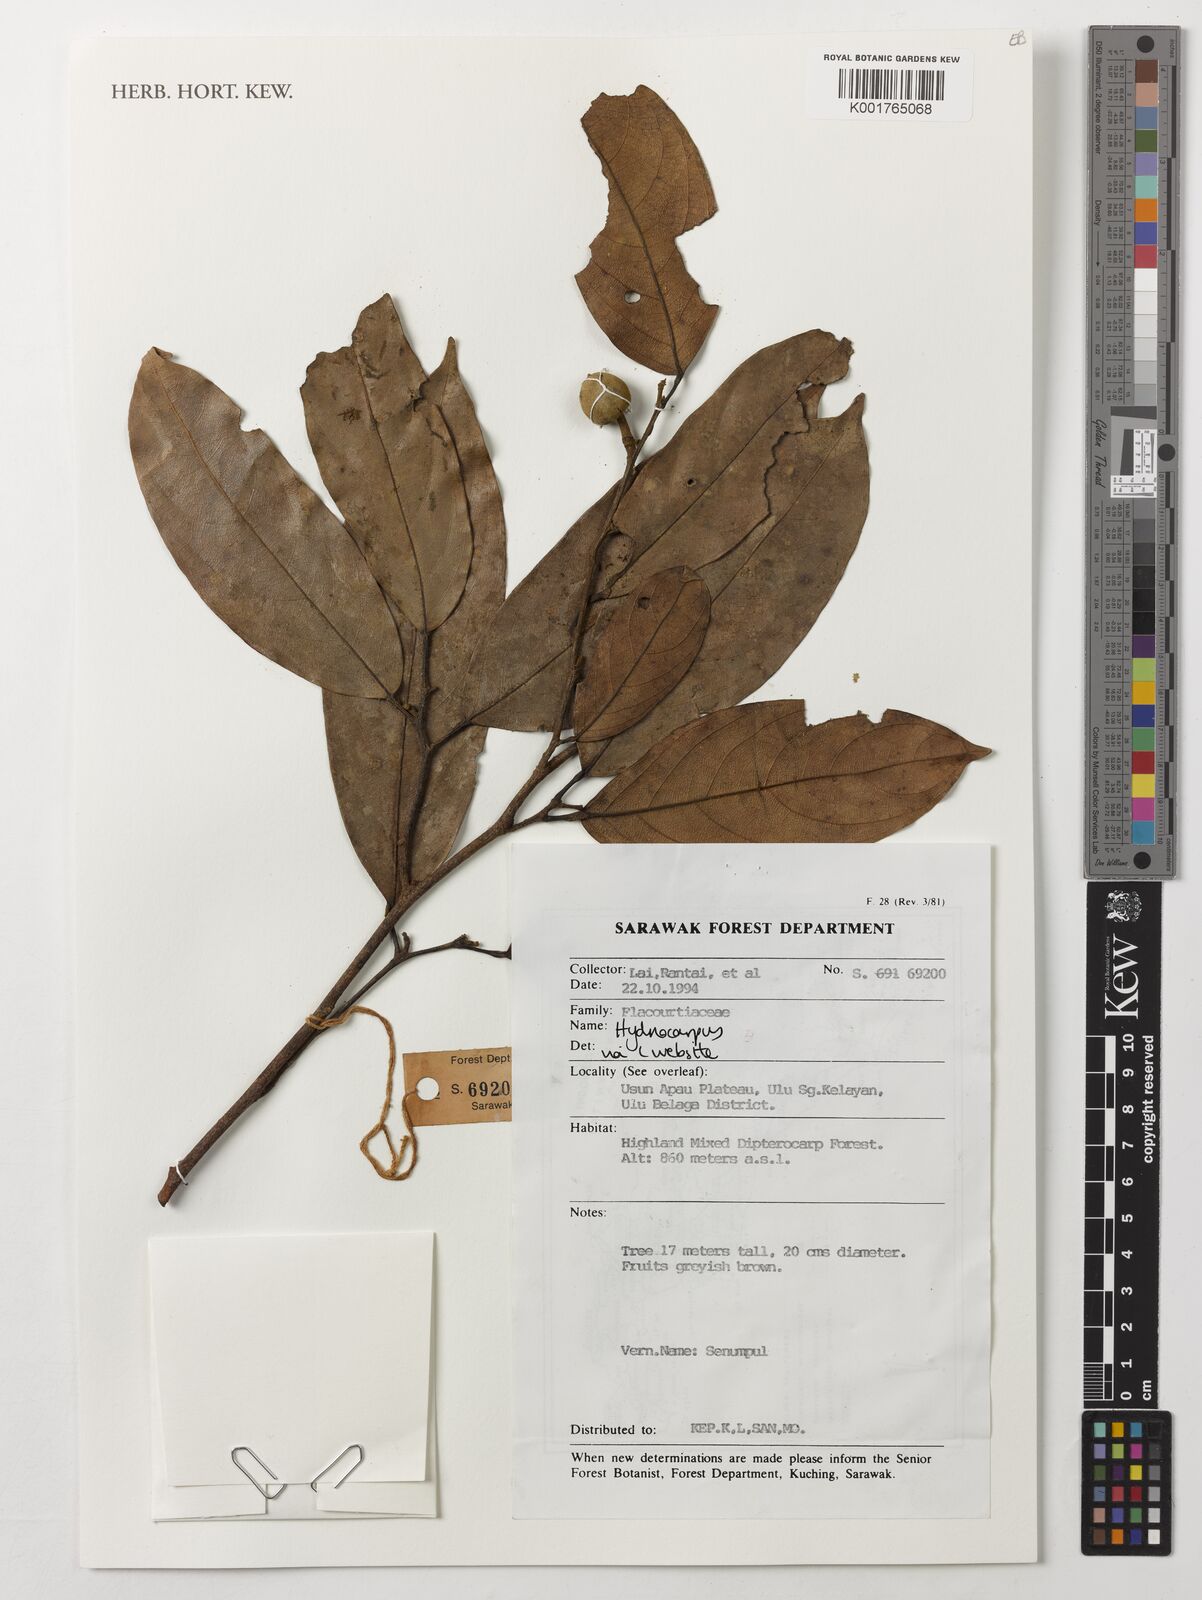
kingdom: Plantae
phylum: Tracheophyta
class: Magnoliopsida
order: Malpighiales
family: Achariaceae
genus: Hydnocarpus
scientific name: Hydnocarpus
